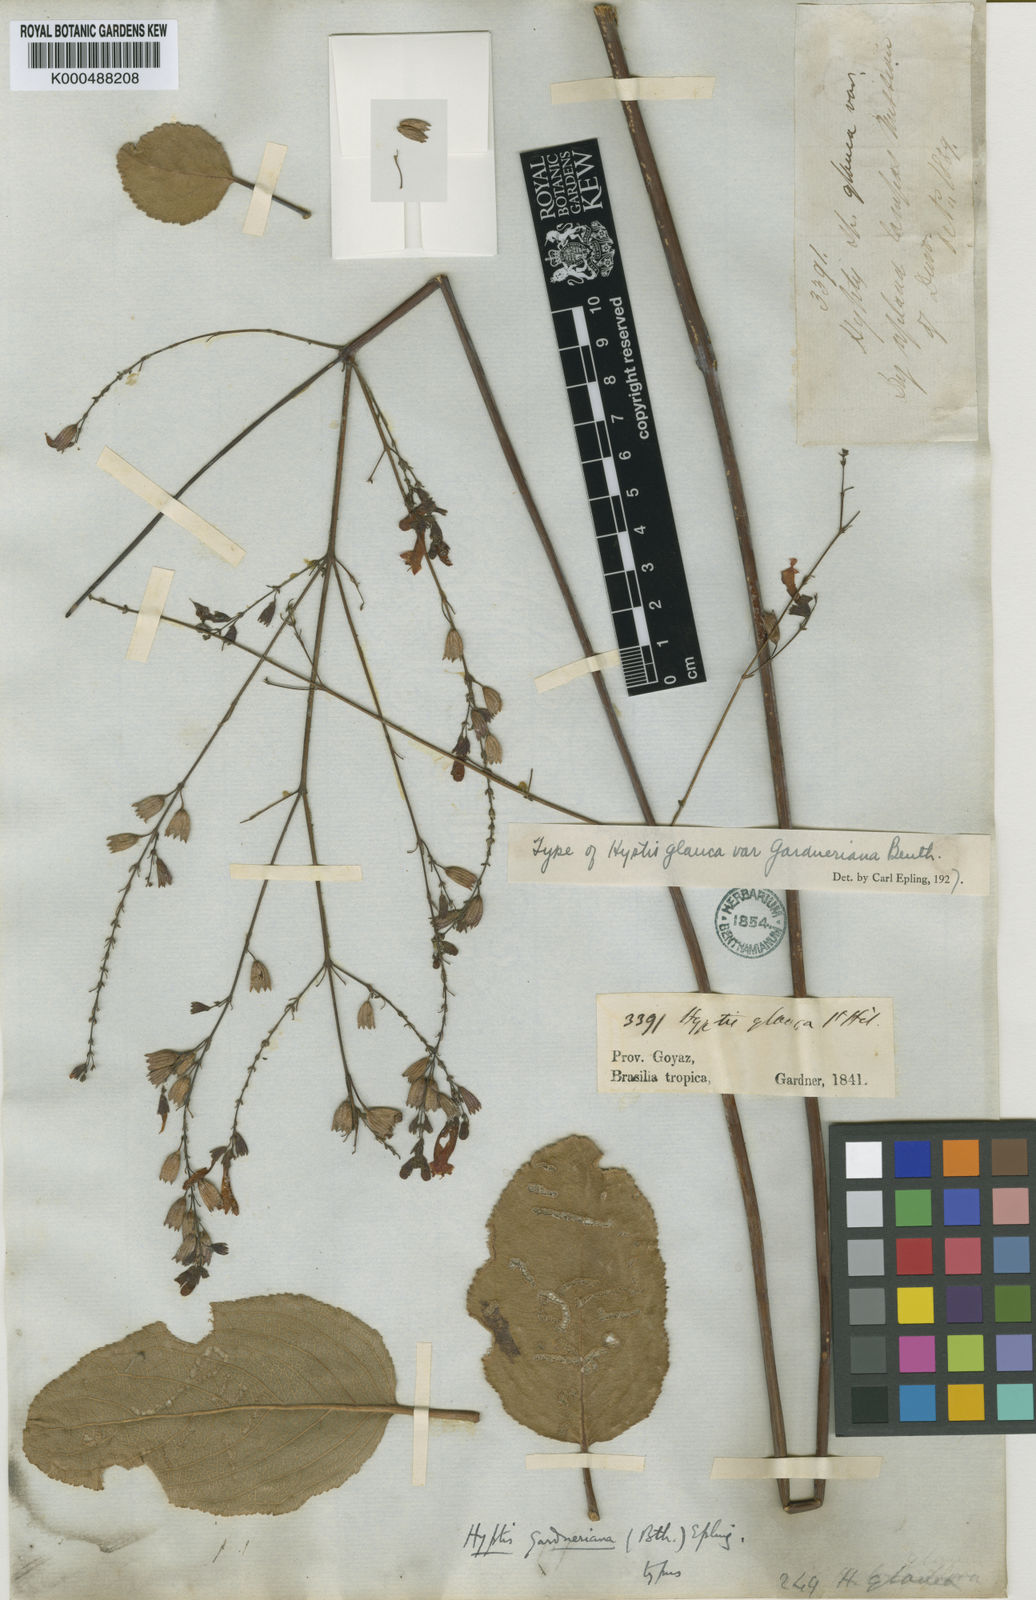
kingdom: Plantae
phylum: Tracheophyta
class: Magnoliopsida
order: Lamiales
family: Lamiaceae
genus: Hypenia
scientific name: Hypenia reticulata
